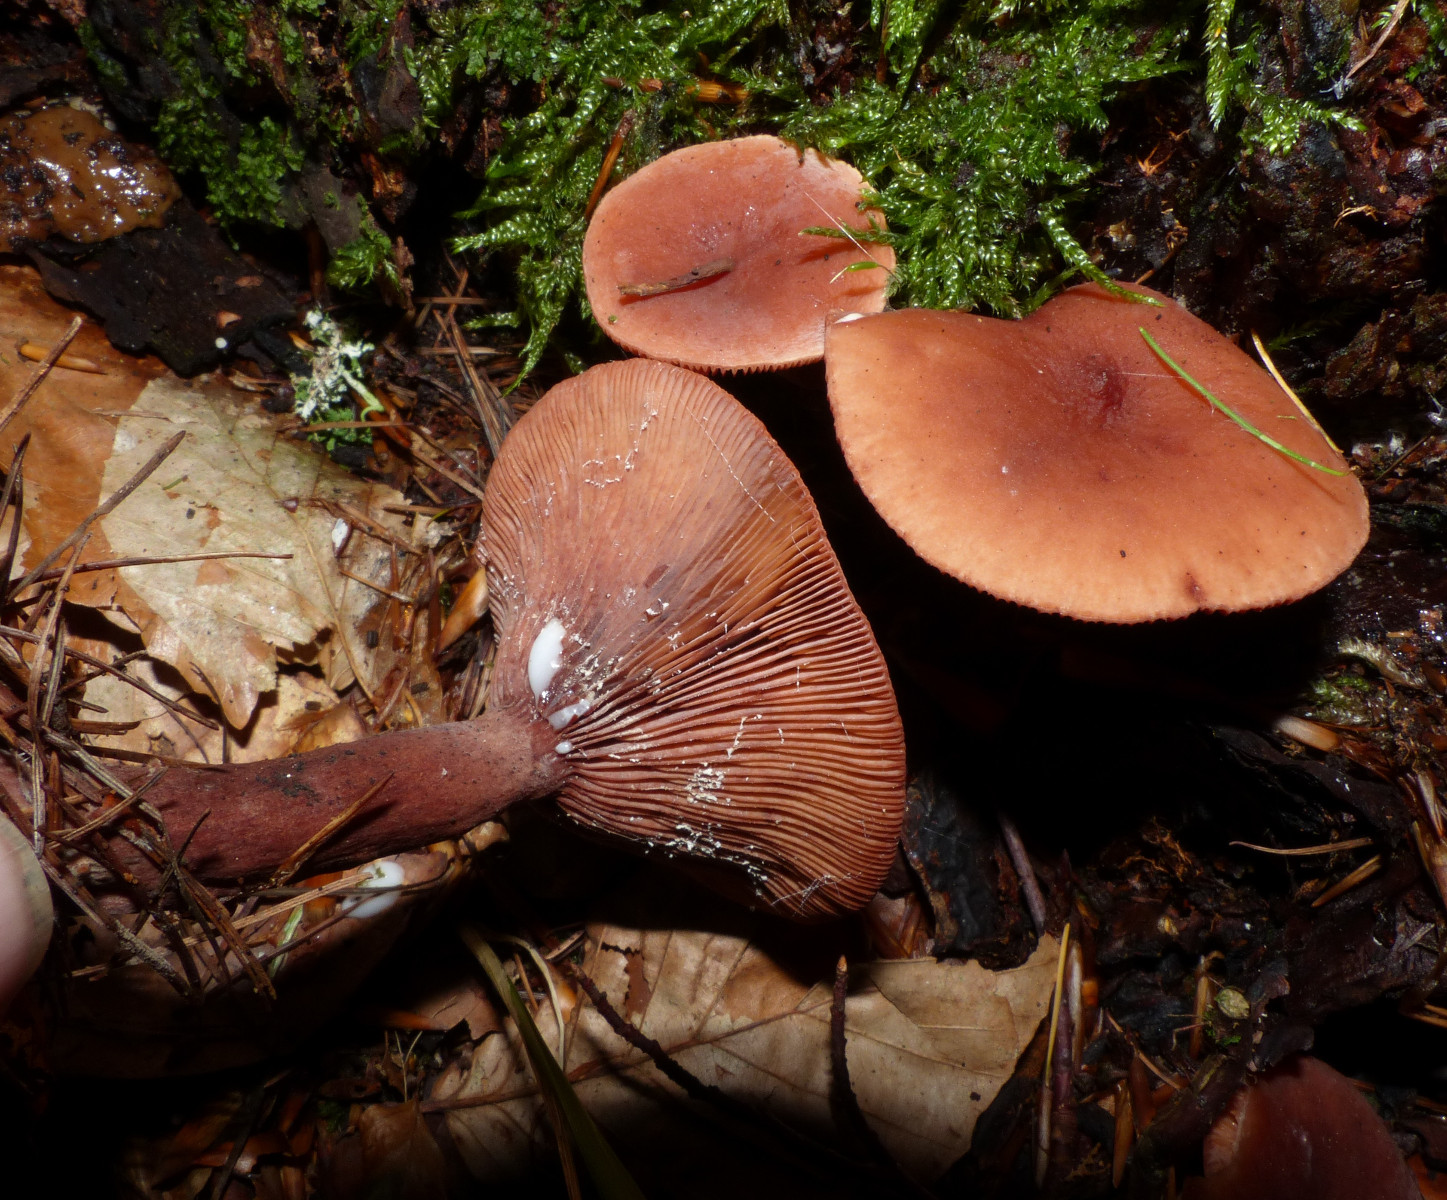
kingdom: Fungi
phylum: Basidiomycota
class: Agaricomycetes
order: Russulales
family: Russulaceae
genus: Lactarius
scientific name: Lactarius camphoratus
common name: kamfer-mælkehat
